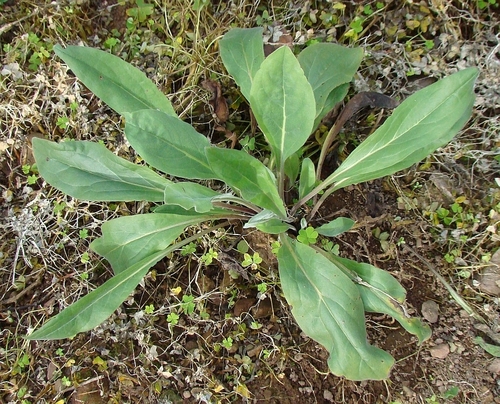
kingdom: Plantae
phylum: Tracheophyta
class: Magnoliopsida
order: Boraginales
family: Boraginaceae
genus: Cynoglossum
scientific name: Cynoglossum creticum
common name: Blue hound's tongue
